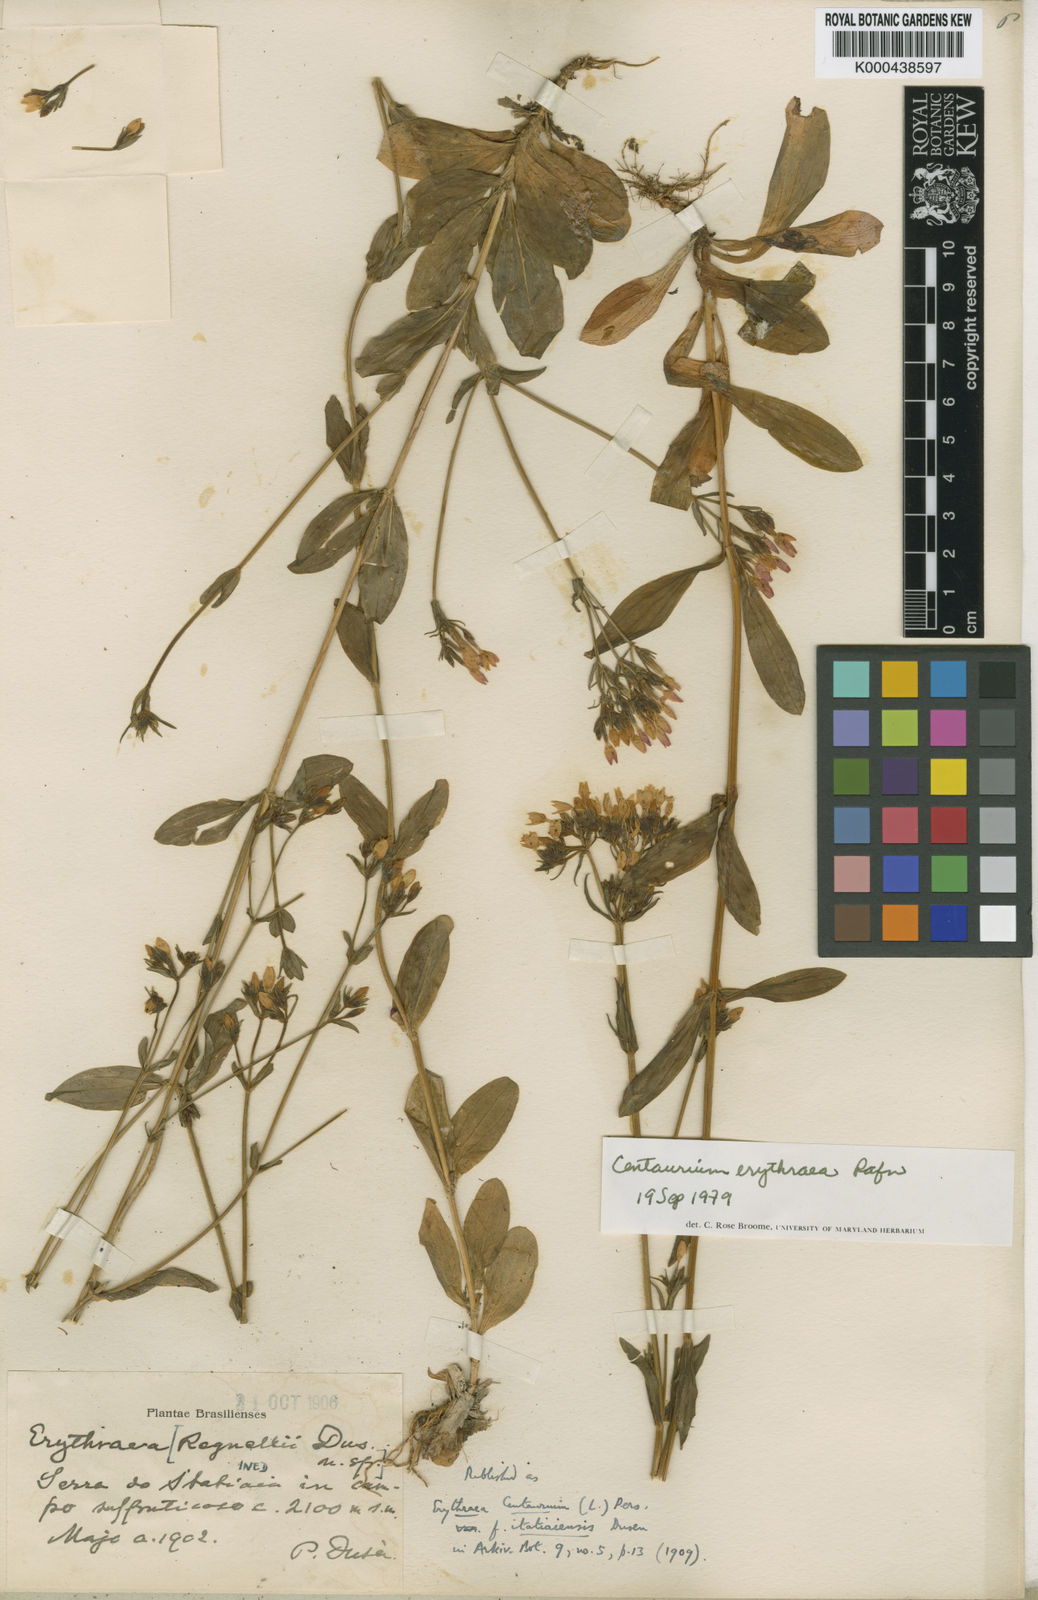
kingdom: Plantae
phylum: Tracheophyta
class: Magnoliopsida
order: Gentianales
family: Gentianaceae
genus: Centaurium
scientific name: Centaurium
